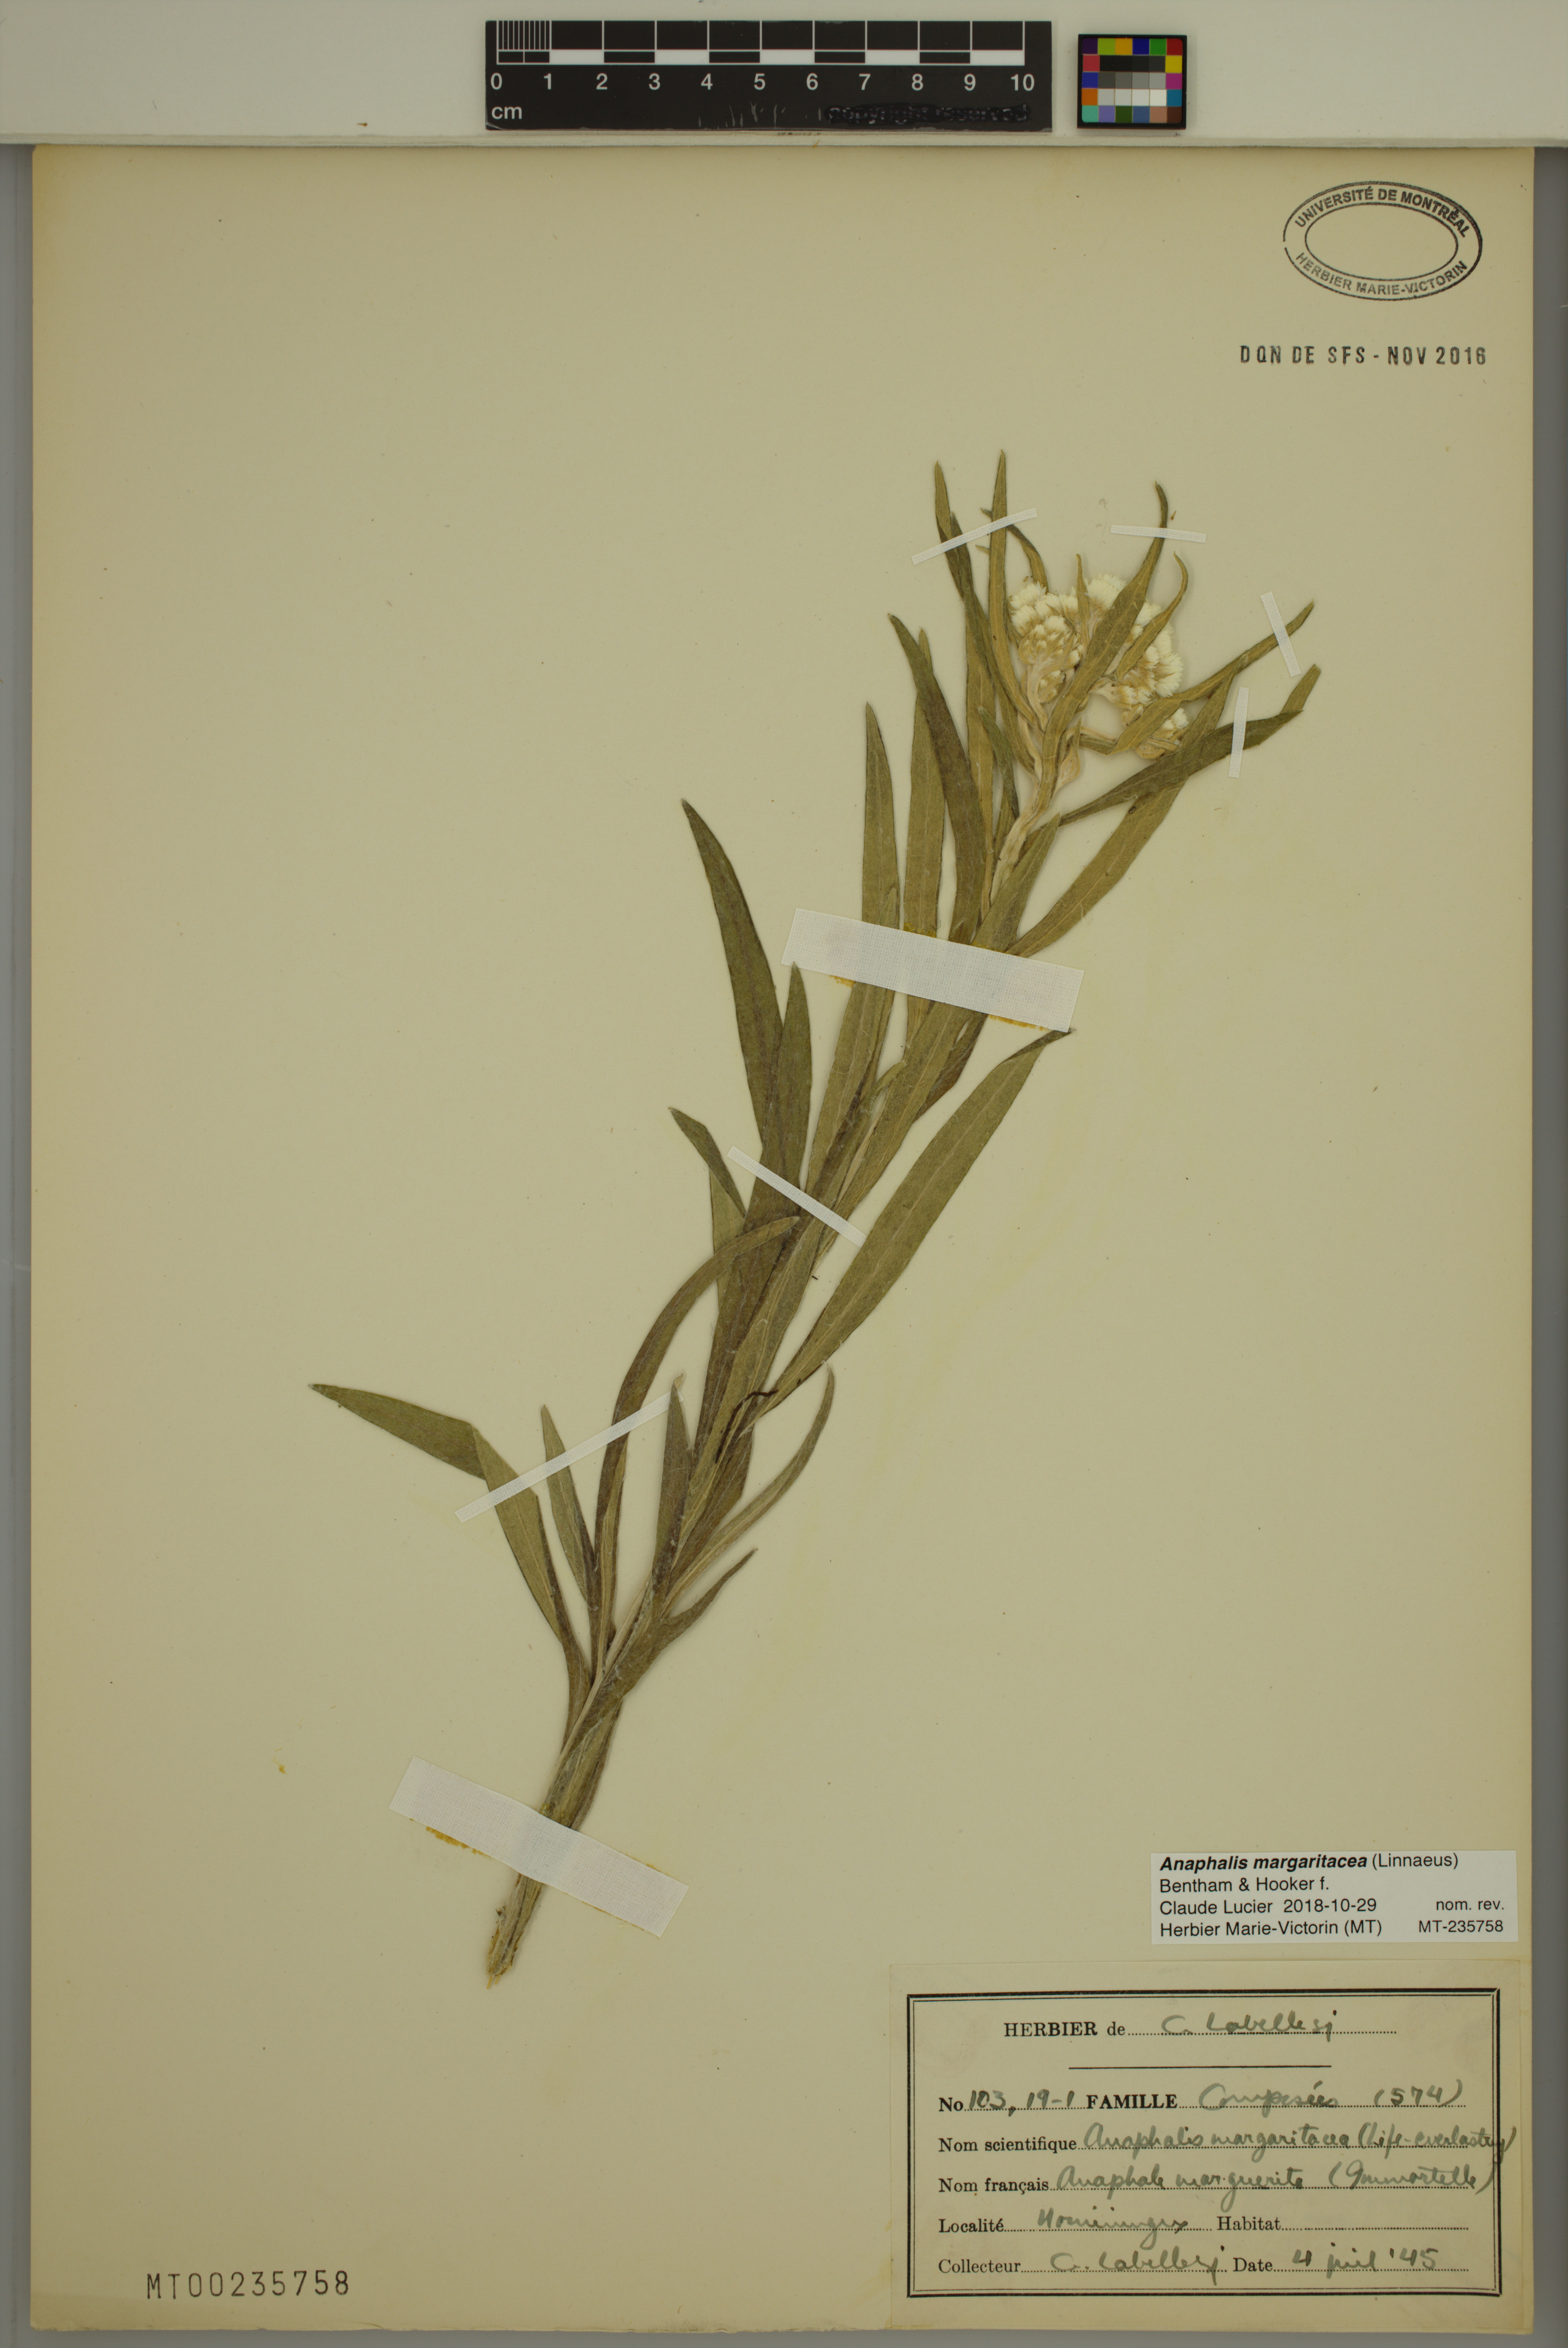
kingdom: Plantae
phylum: Tracheophyta
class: Magnoliopsida
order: Asterales
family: Asteraceae
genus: Anaphalis
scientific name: Anaphalis margaritacea
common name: Pearly everlasting
